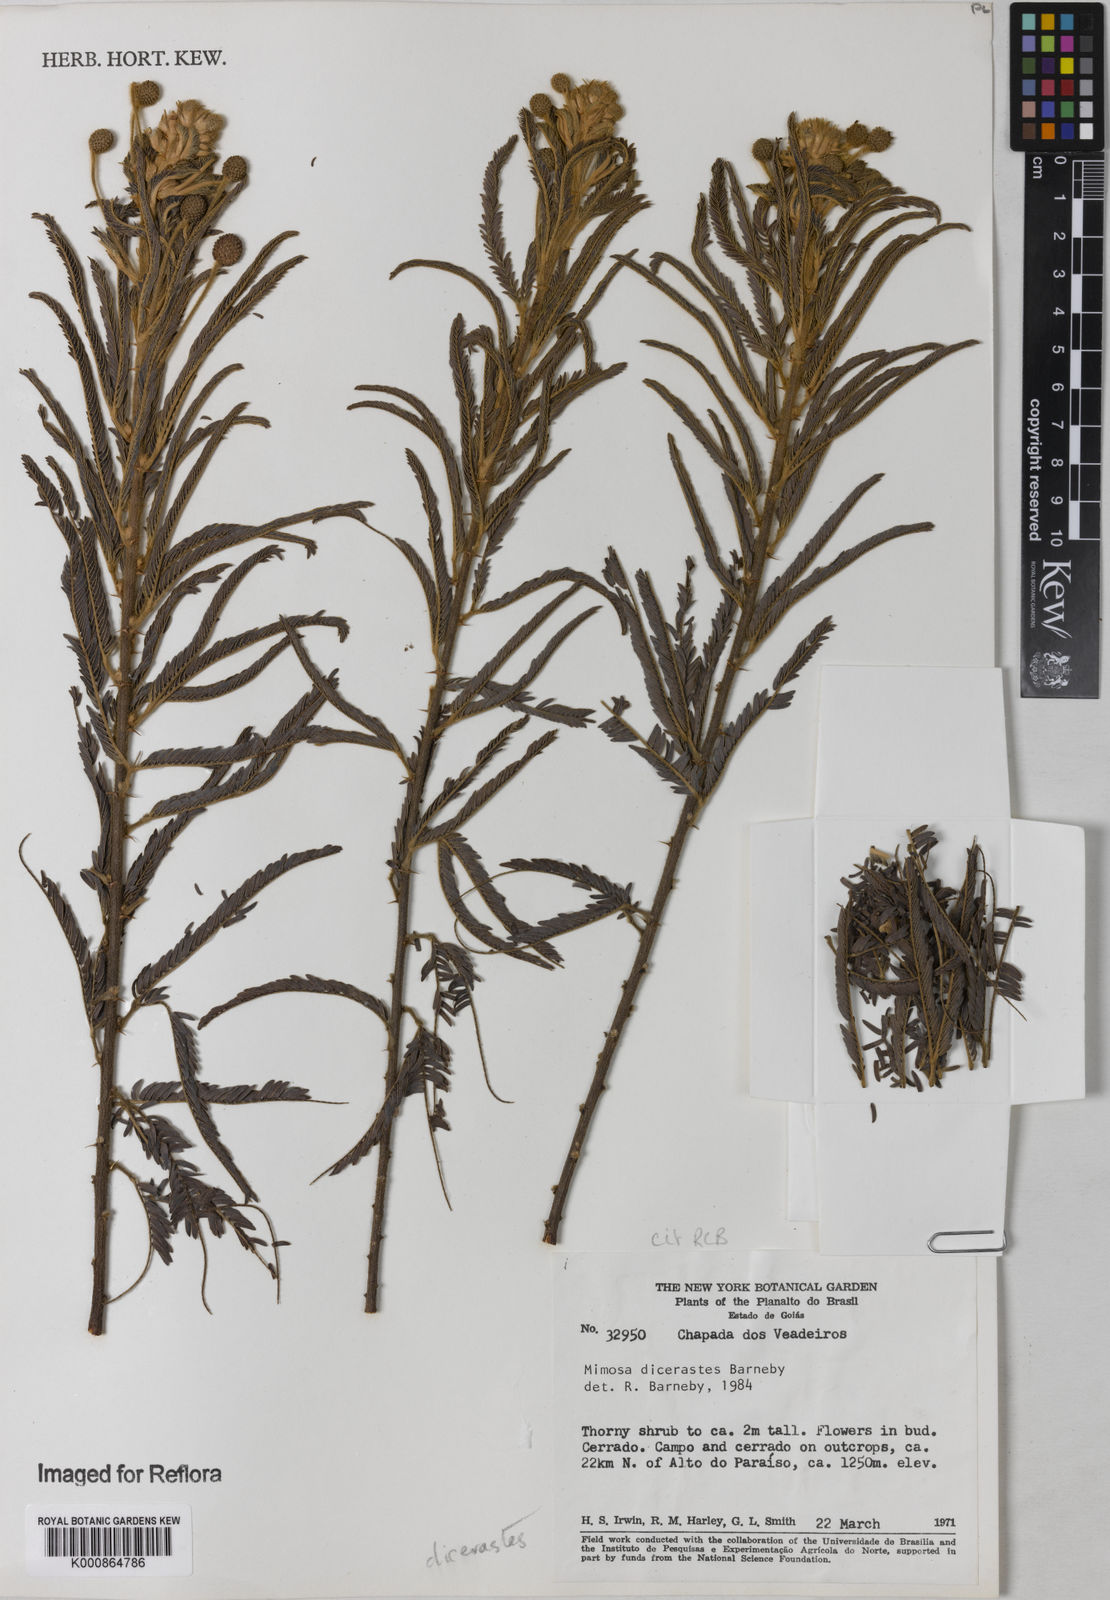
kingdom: Plantae
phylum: Tracheophyta
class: Magnoliopsida
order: Fabales
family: Fabaceae
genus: Mimosa
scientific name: Mimosa
